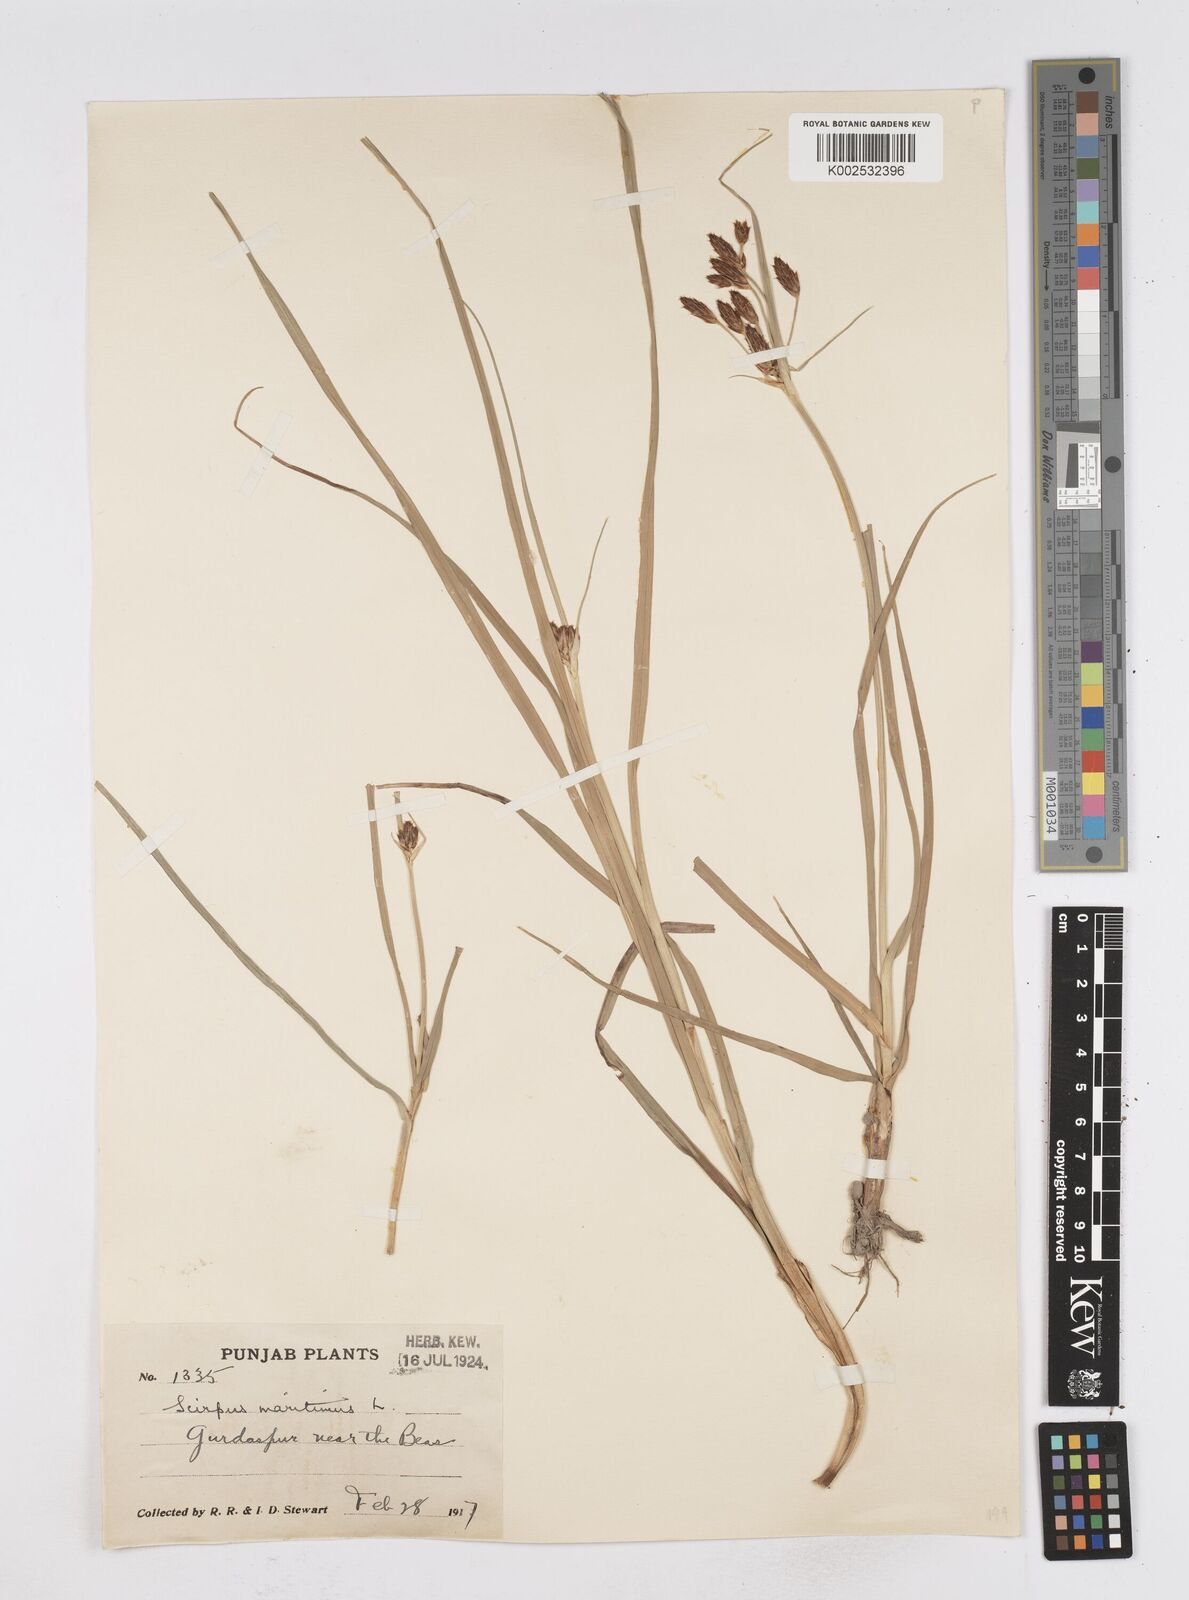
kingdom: Plantae
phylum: Tracheophyta
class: Liliopsida
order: Poales
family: Cyperaceae
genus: Bolboschoenus
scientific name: Bolboschoenus maritimus
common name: Sea club-rush
